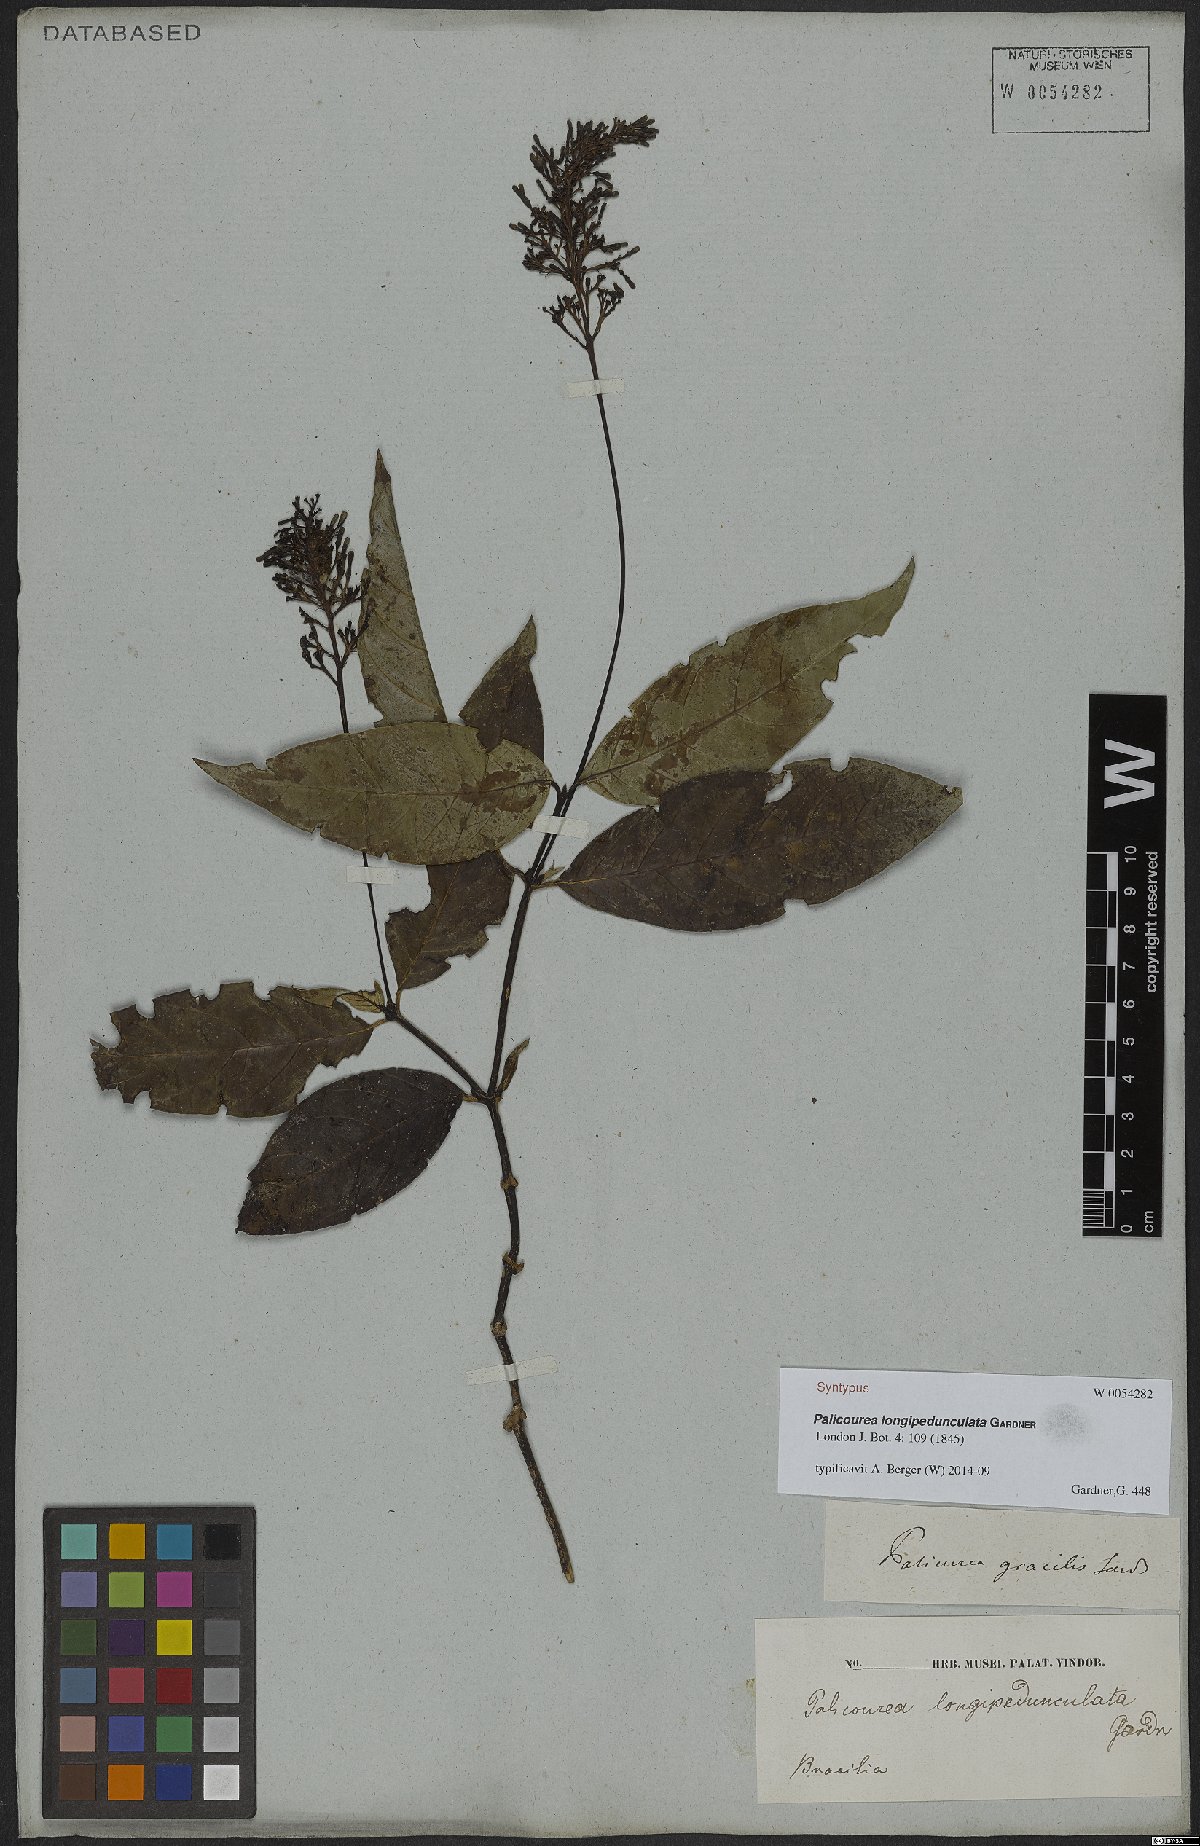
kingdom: Plantae
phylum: Tracheophyta
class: Magnoliopsida
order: Gentianales
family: Rubiaceae
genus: Palicourea
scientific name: Palicourea longipedunculata
